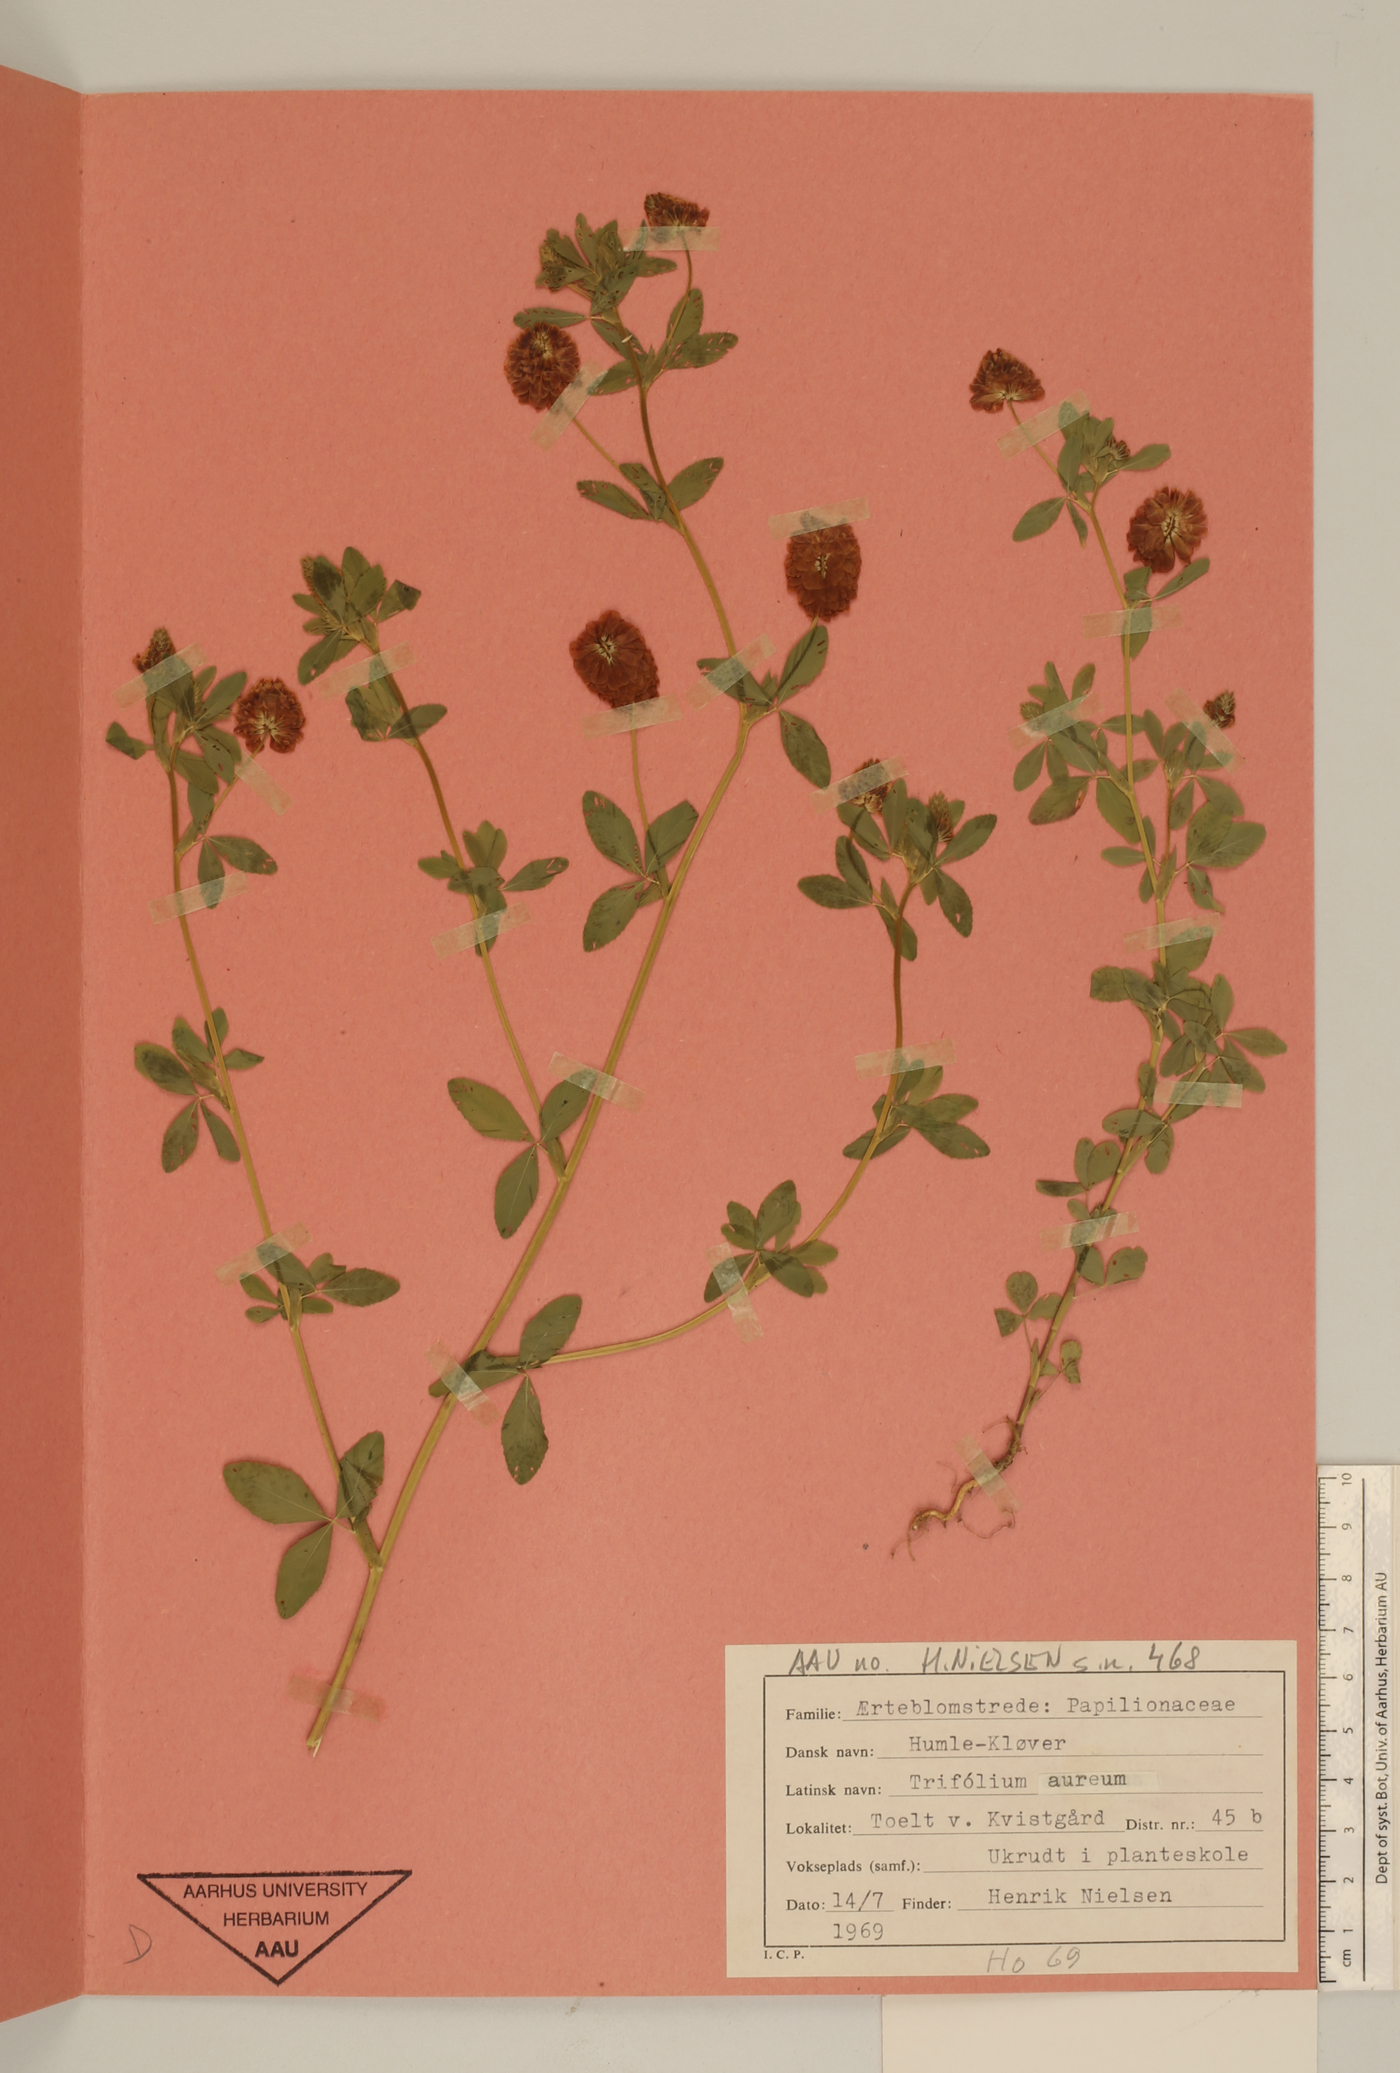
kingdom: Plantae
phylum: Tracheophyta
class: Magnoliopsida
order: Fabales
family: Fabaceae
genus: Trifolium
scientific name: Trifolium aureum
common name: Golden clover
